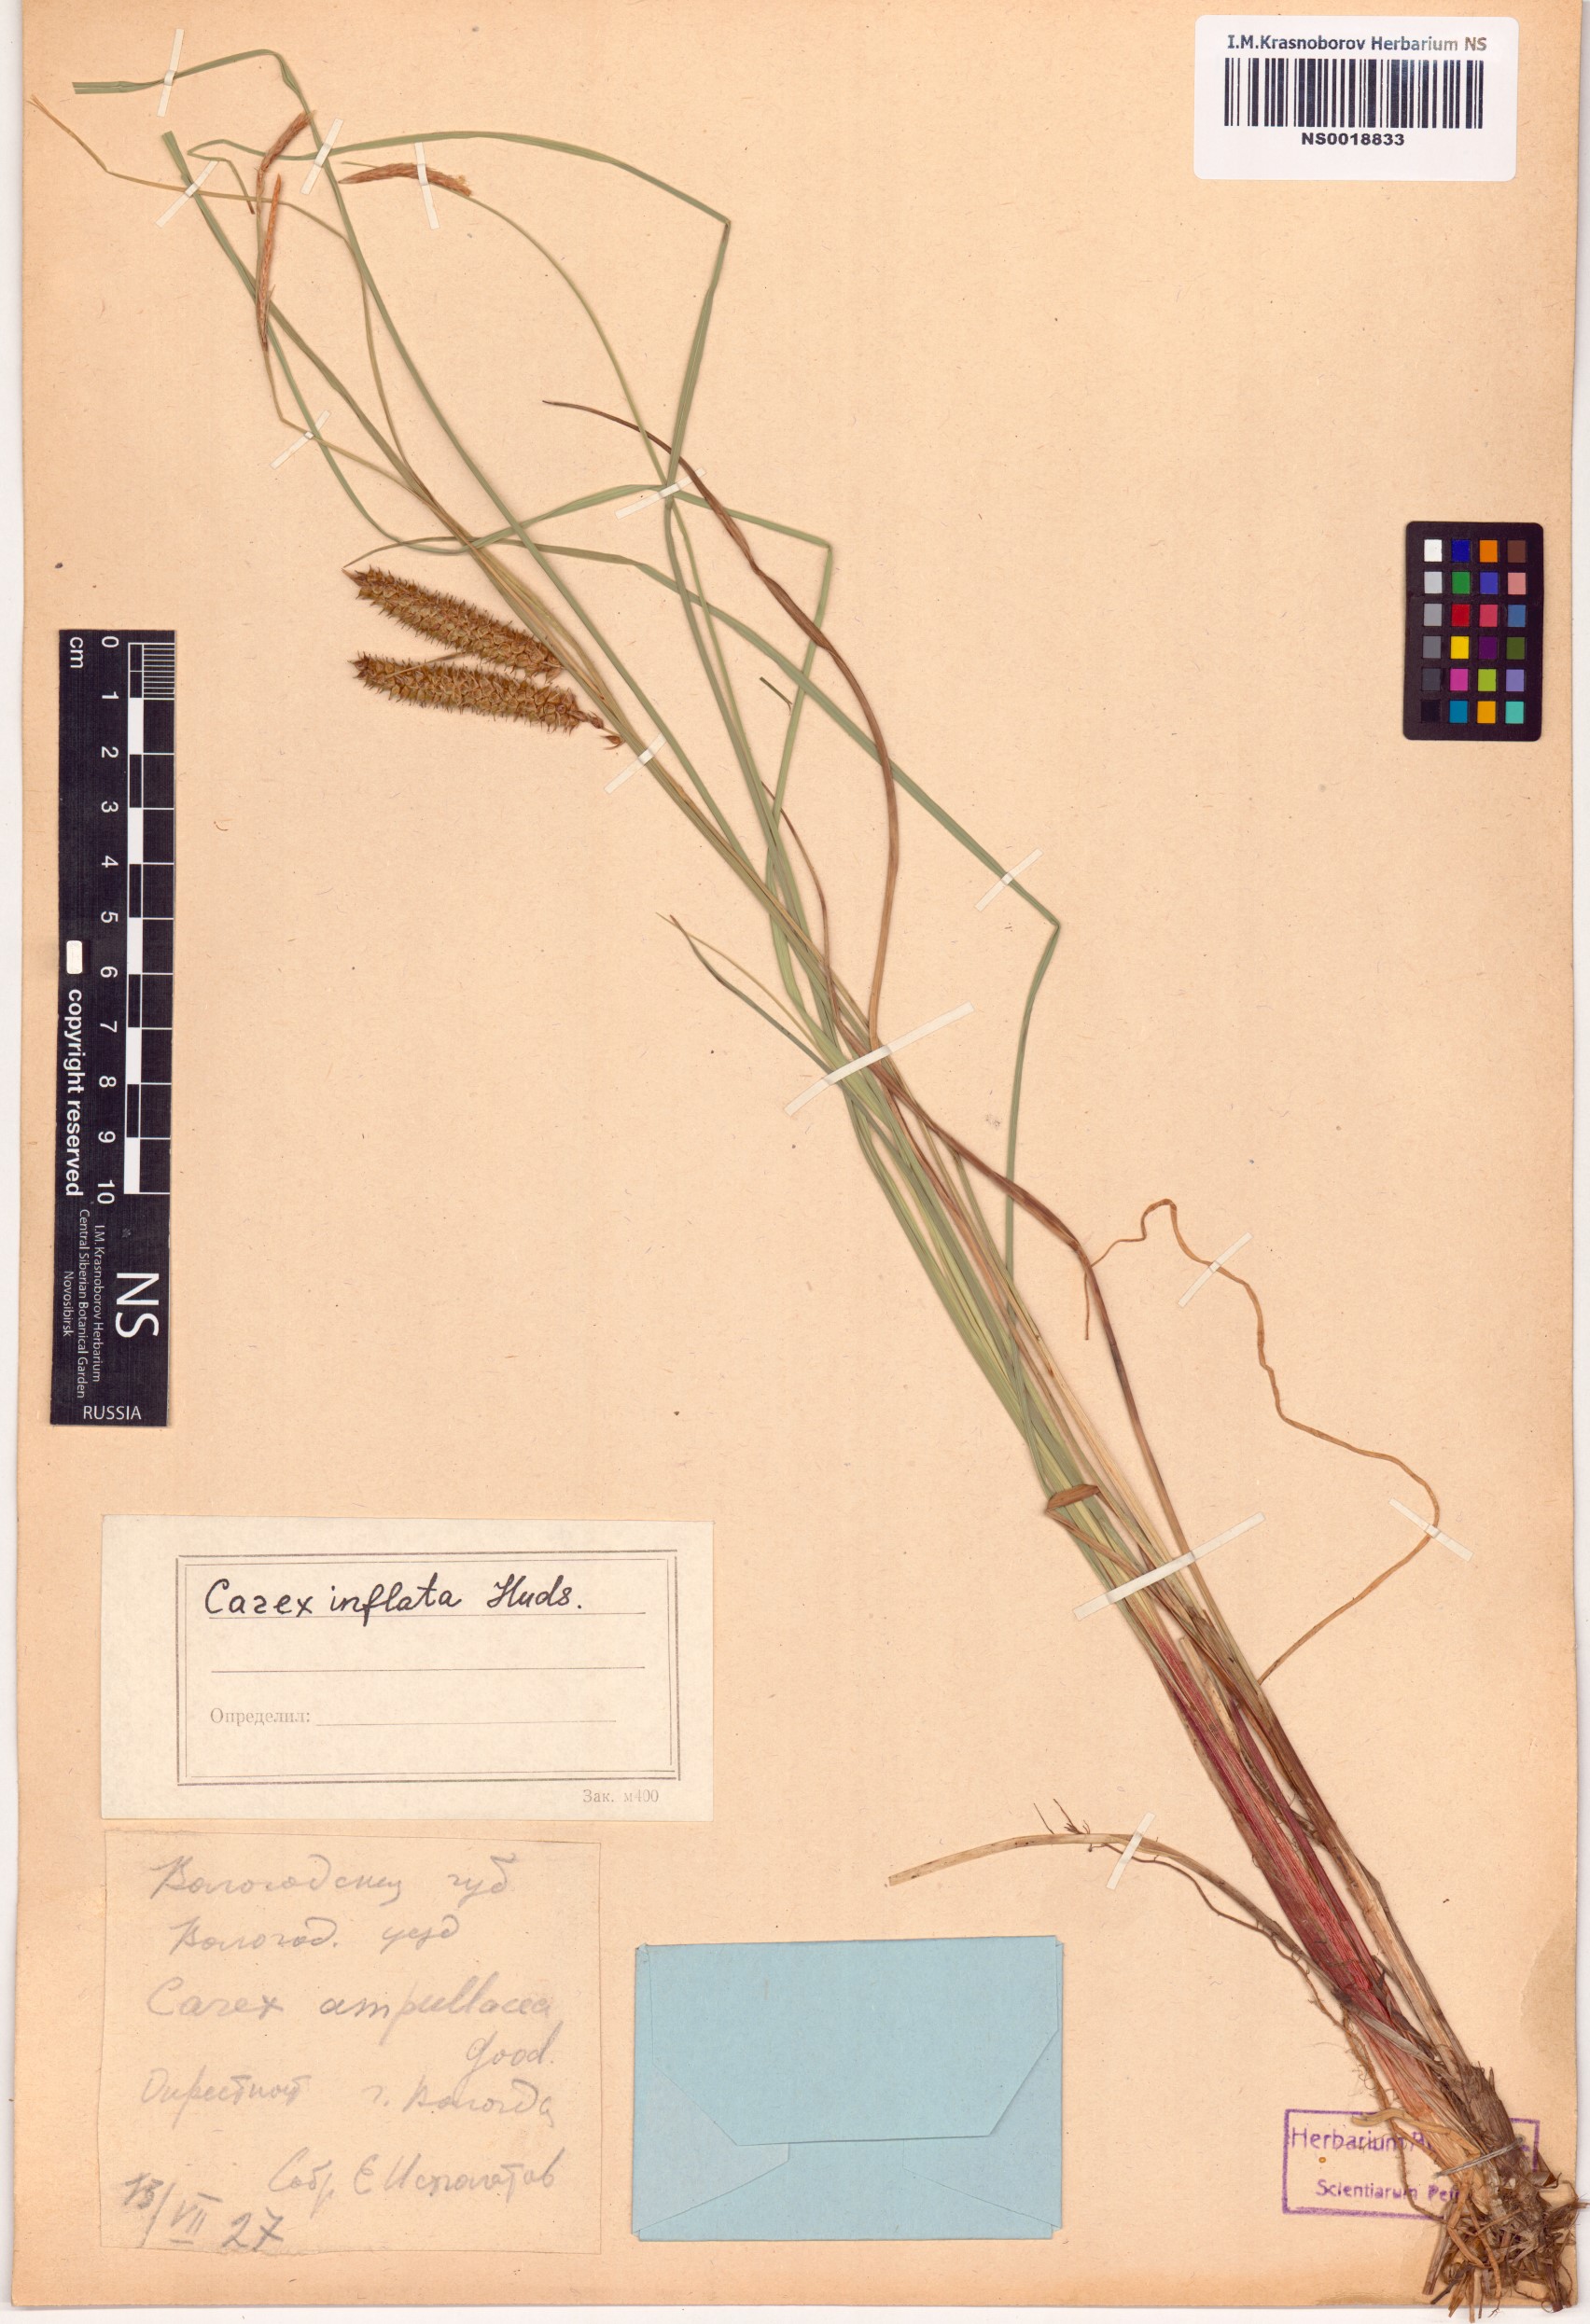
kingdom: Plantae
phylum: Tracheophyta
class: Liliopsida
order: Poales
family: Cyperaceae
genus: Carex
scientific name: Carex rostrata
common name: Bottle sedge
